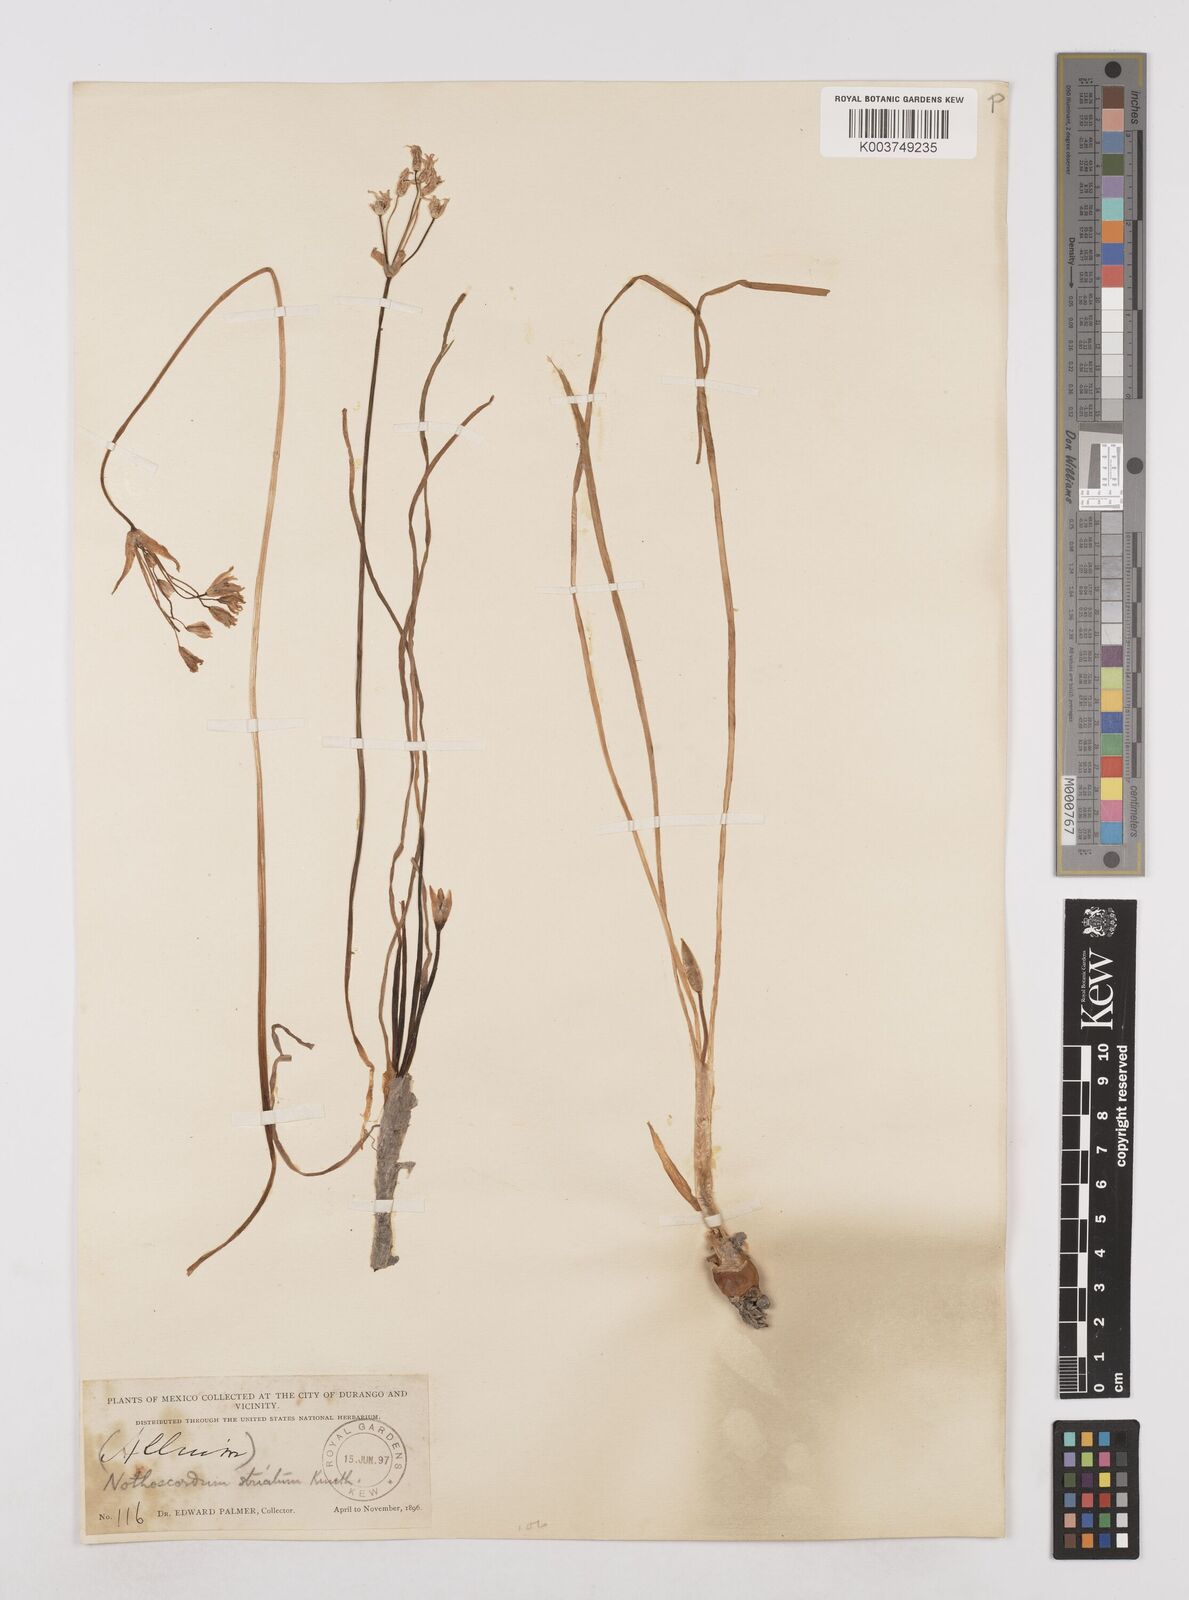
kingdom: Plantae
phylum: Tracheophyta
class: Liliopsida
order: Asparagales
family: Amaryllidaceae
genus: Nothoscordum
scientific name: Nothoscordum bivalve
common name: Crow-poison
